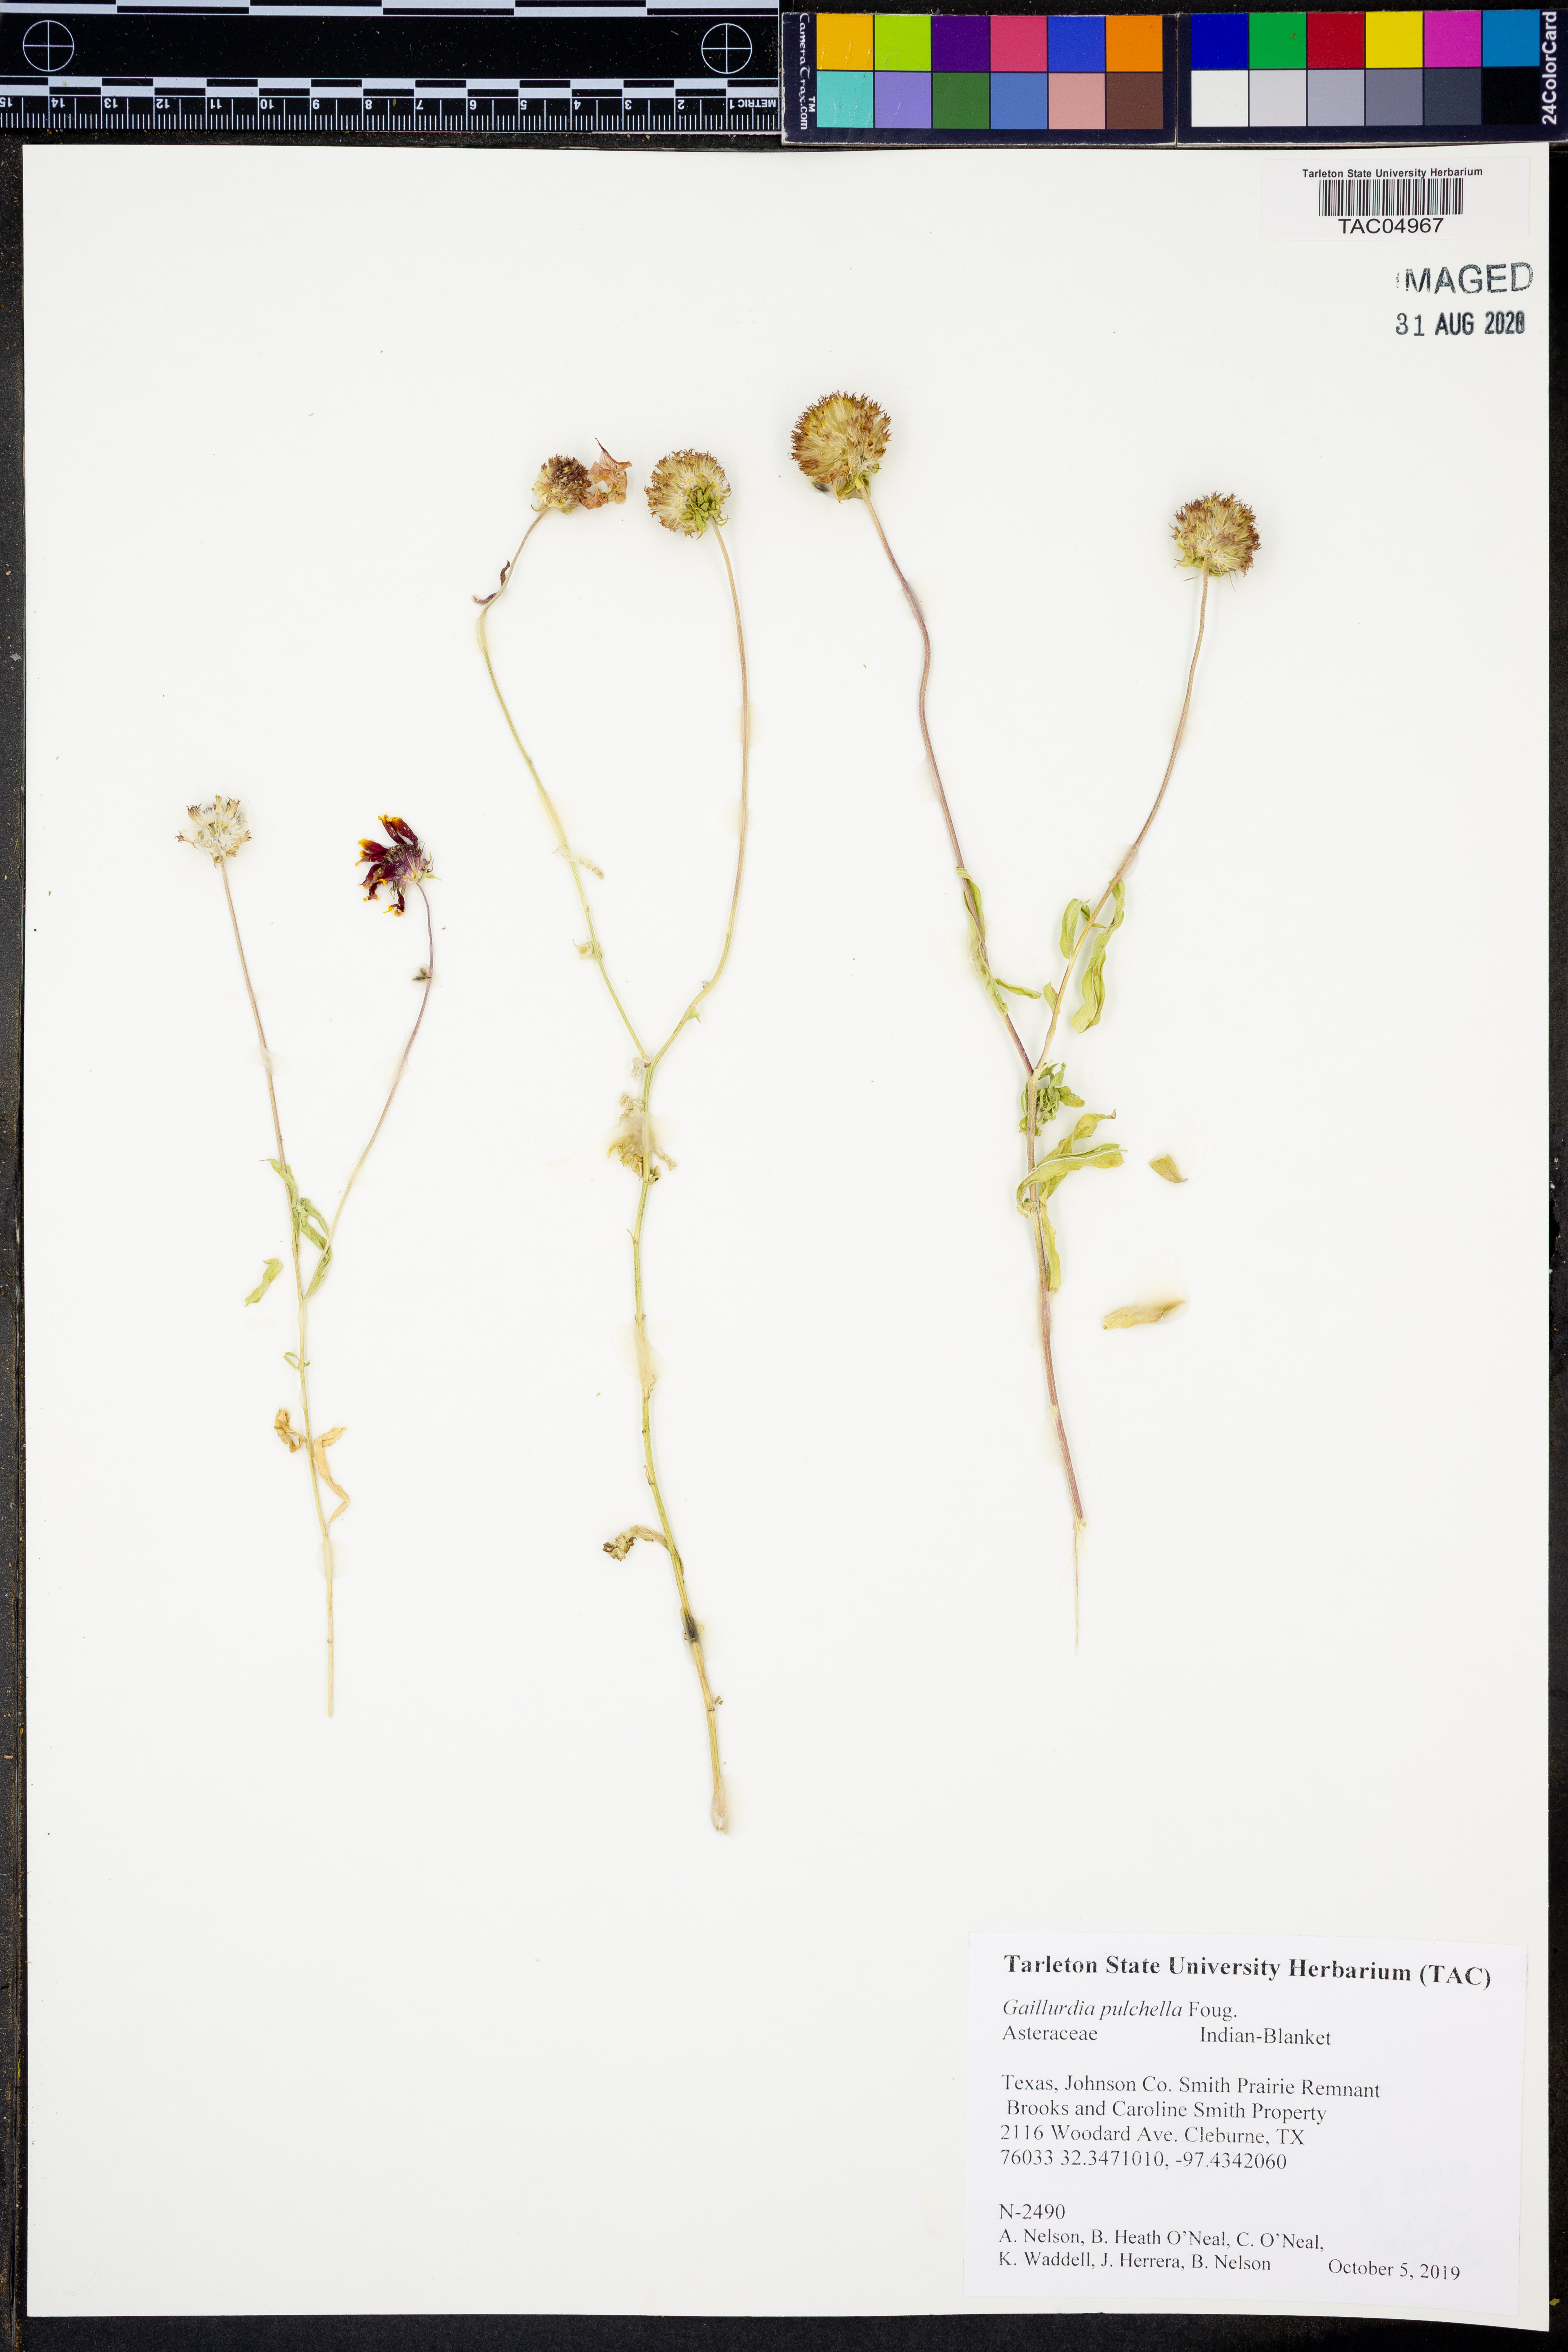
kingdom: Plantae
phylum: Tracheophyta
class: Magnoliopsida
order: Asterales
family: Asteraceae
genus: Gaillardia
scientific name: Gaillardia pulchella
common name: Firewheel
